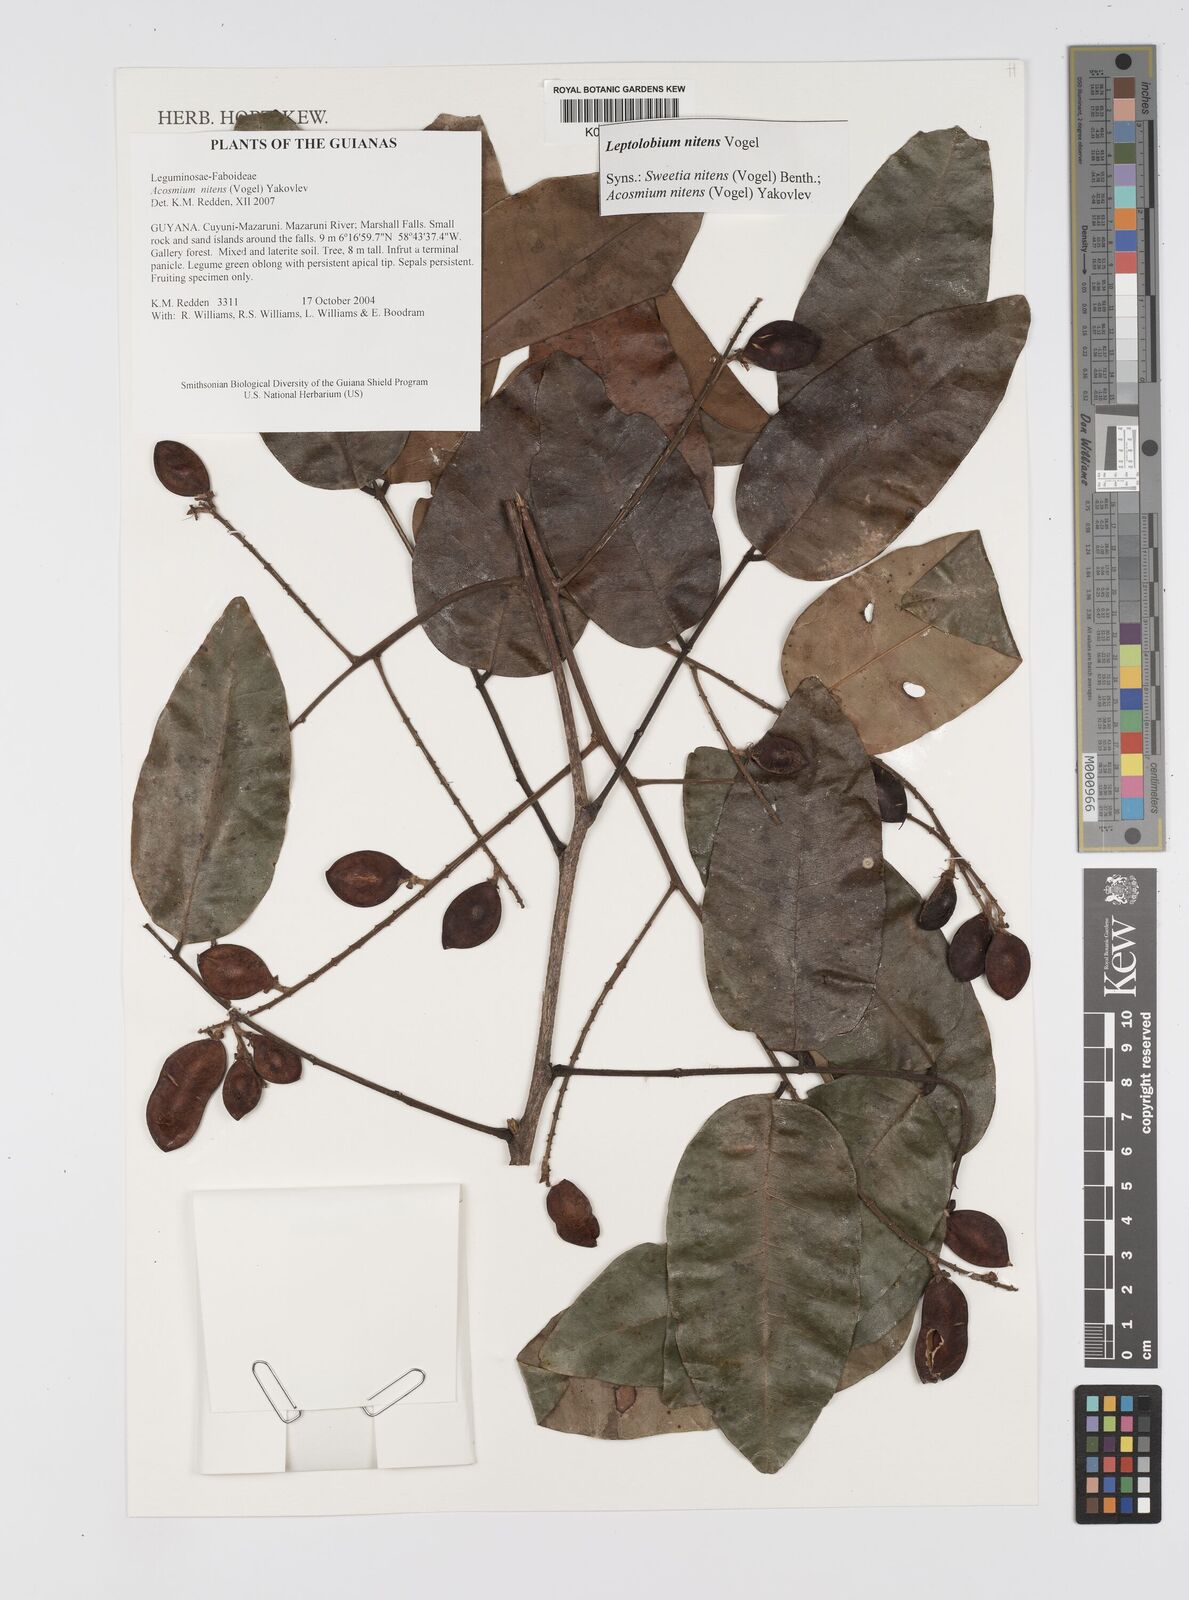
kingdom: Plantae
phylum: Tracheophyta
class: Magnoliopsida
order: Fabales
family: Fabaceae
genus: Leptolobium
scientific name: Leptolobium nitens
